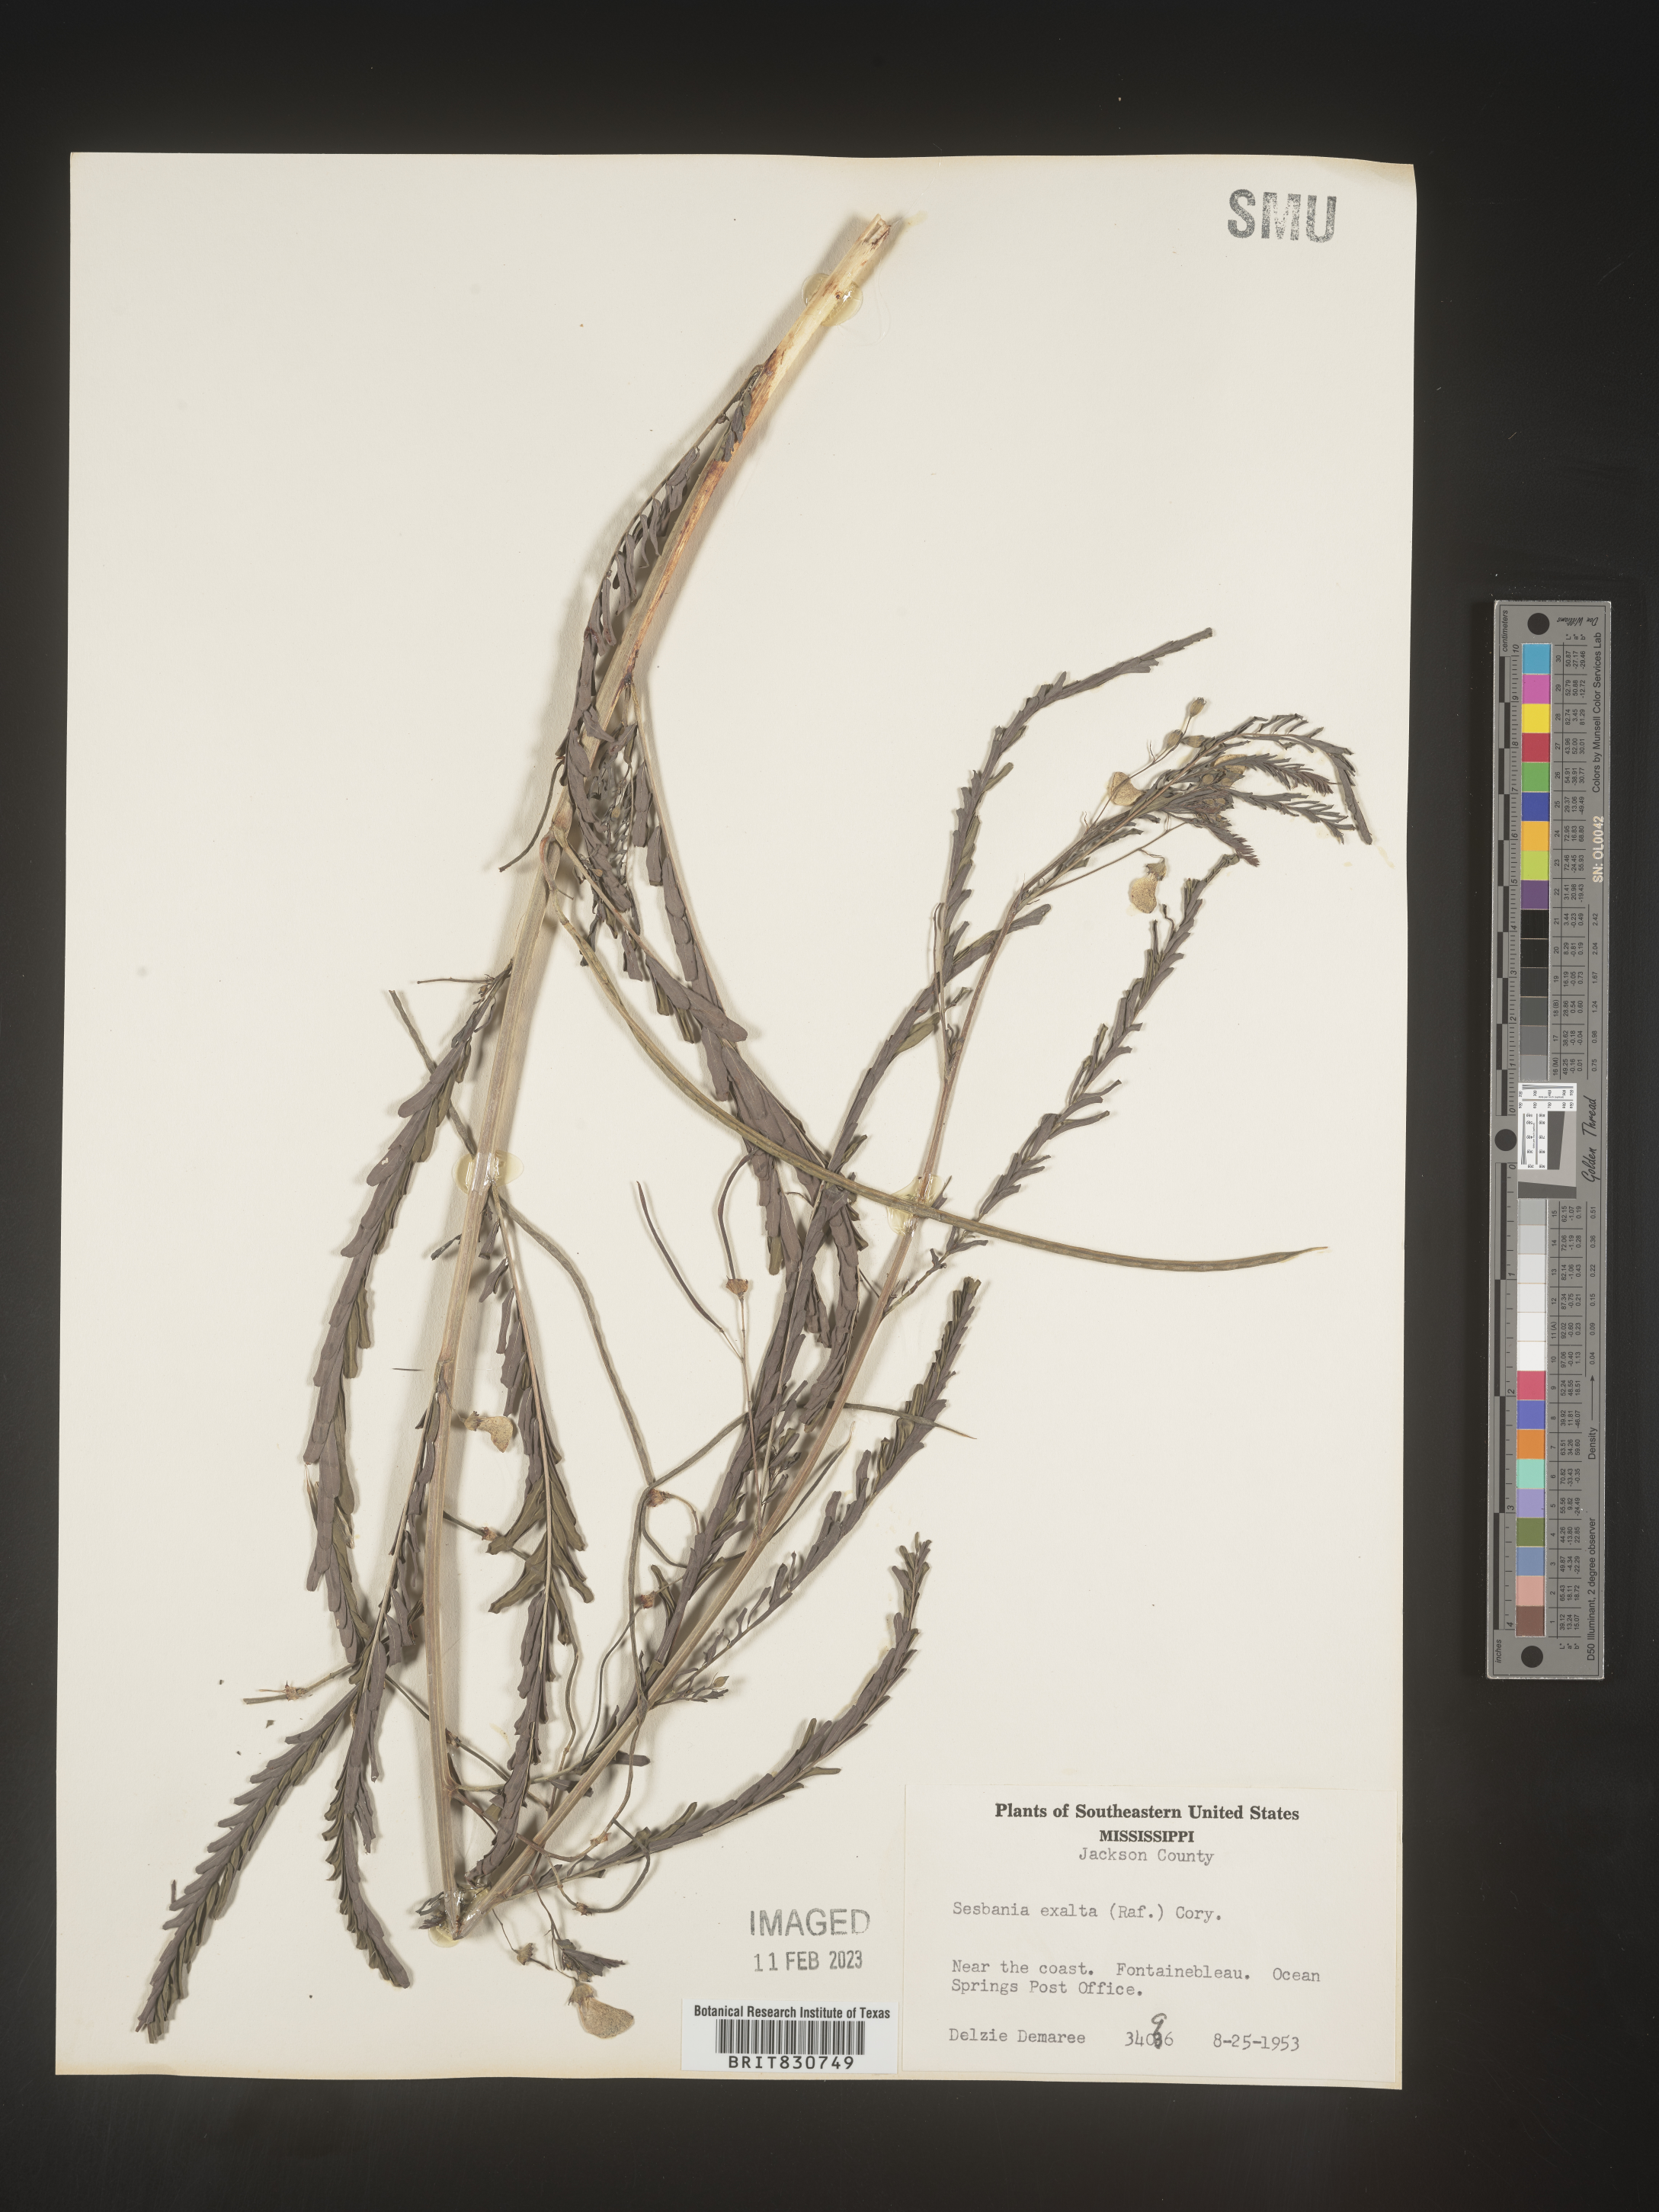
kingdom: Plantae
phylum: Tracheophyta
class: Magnoliopsida
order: Fabales
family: Fabaceae
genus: Sesbania
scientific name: Sesbania vesicaria
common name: Bagpod
